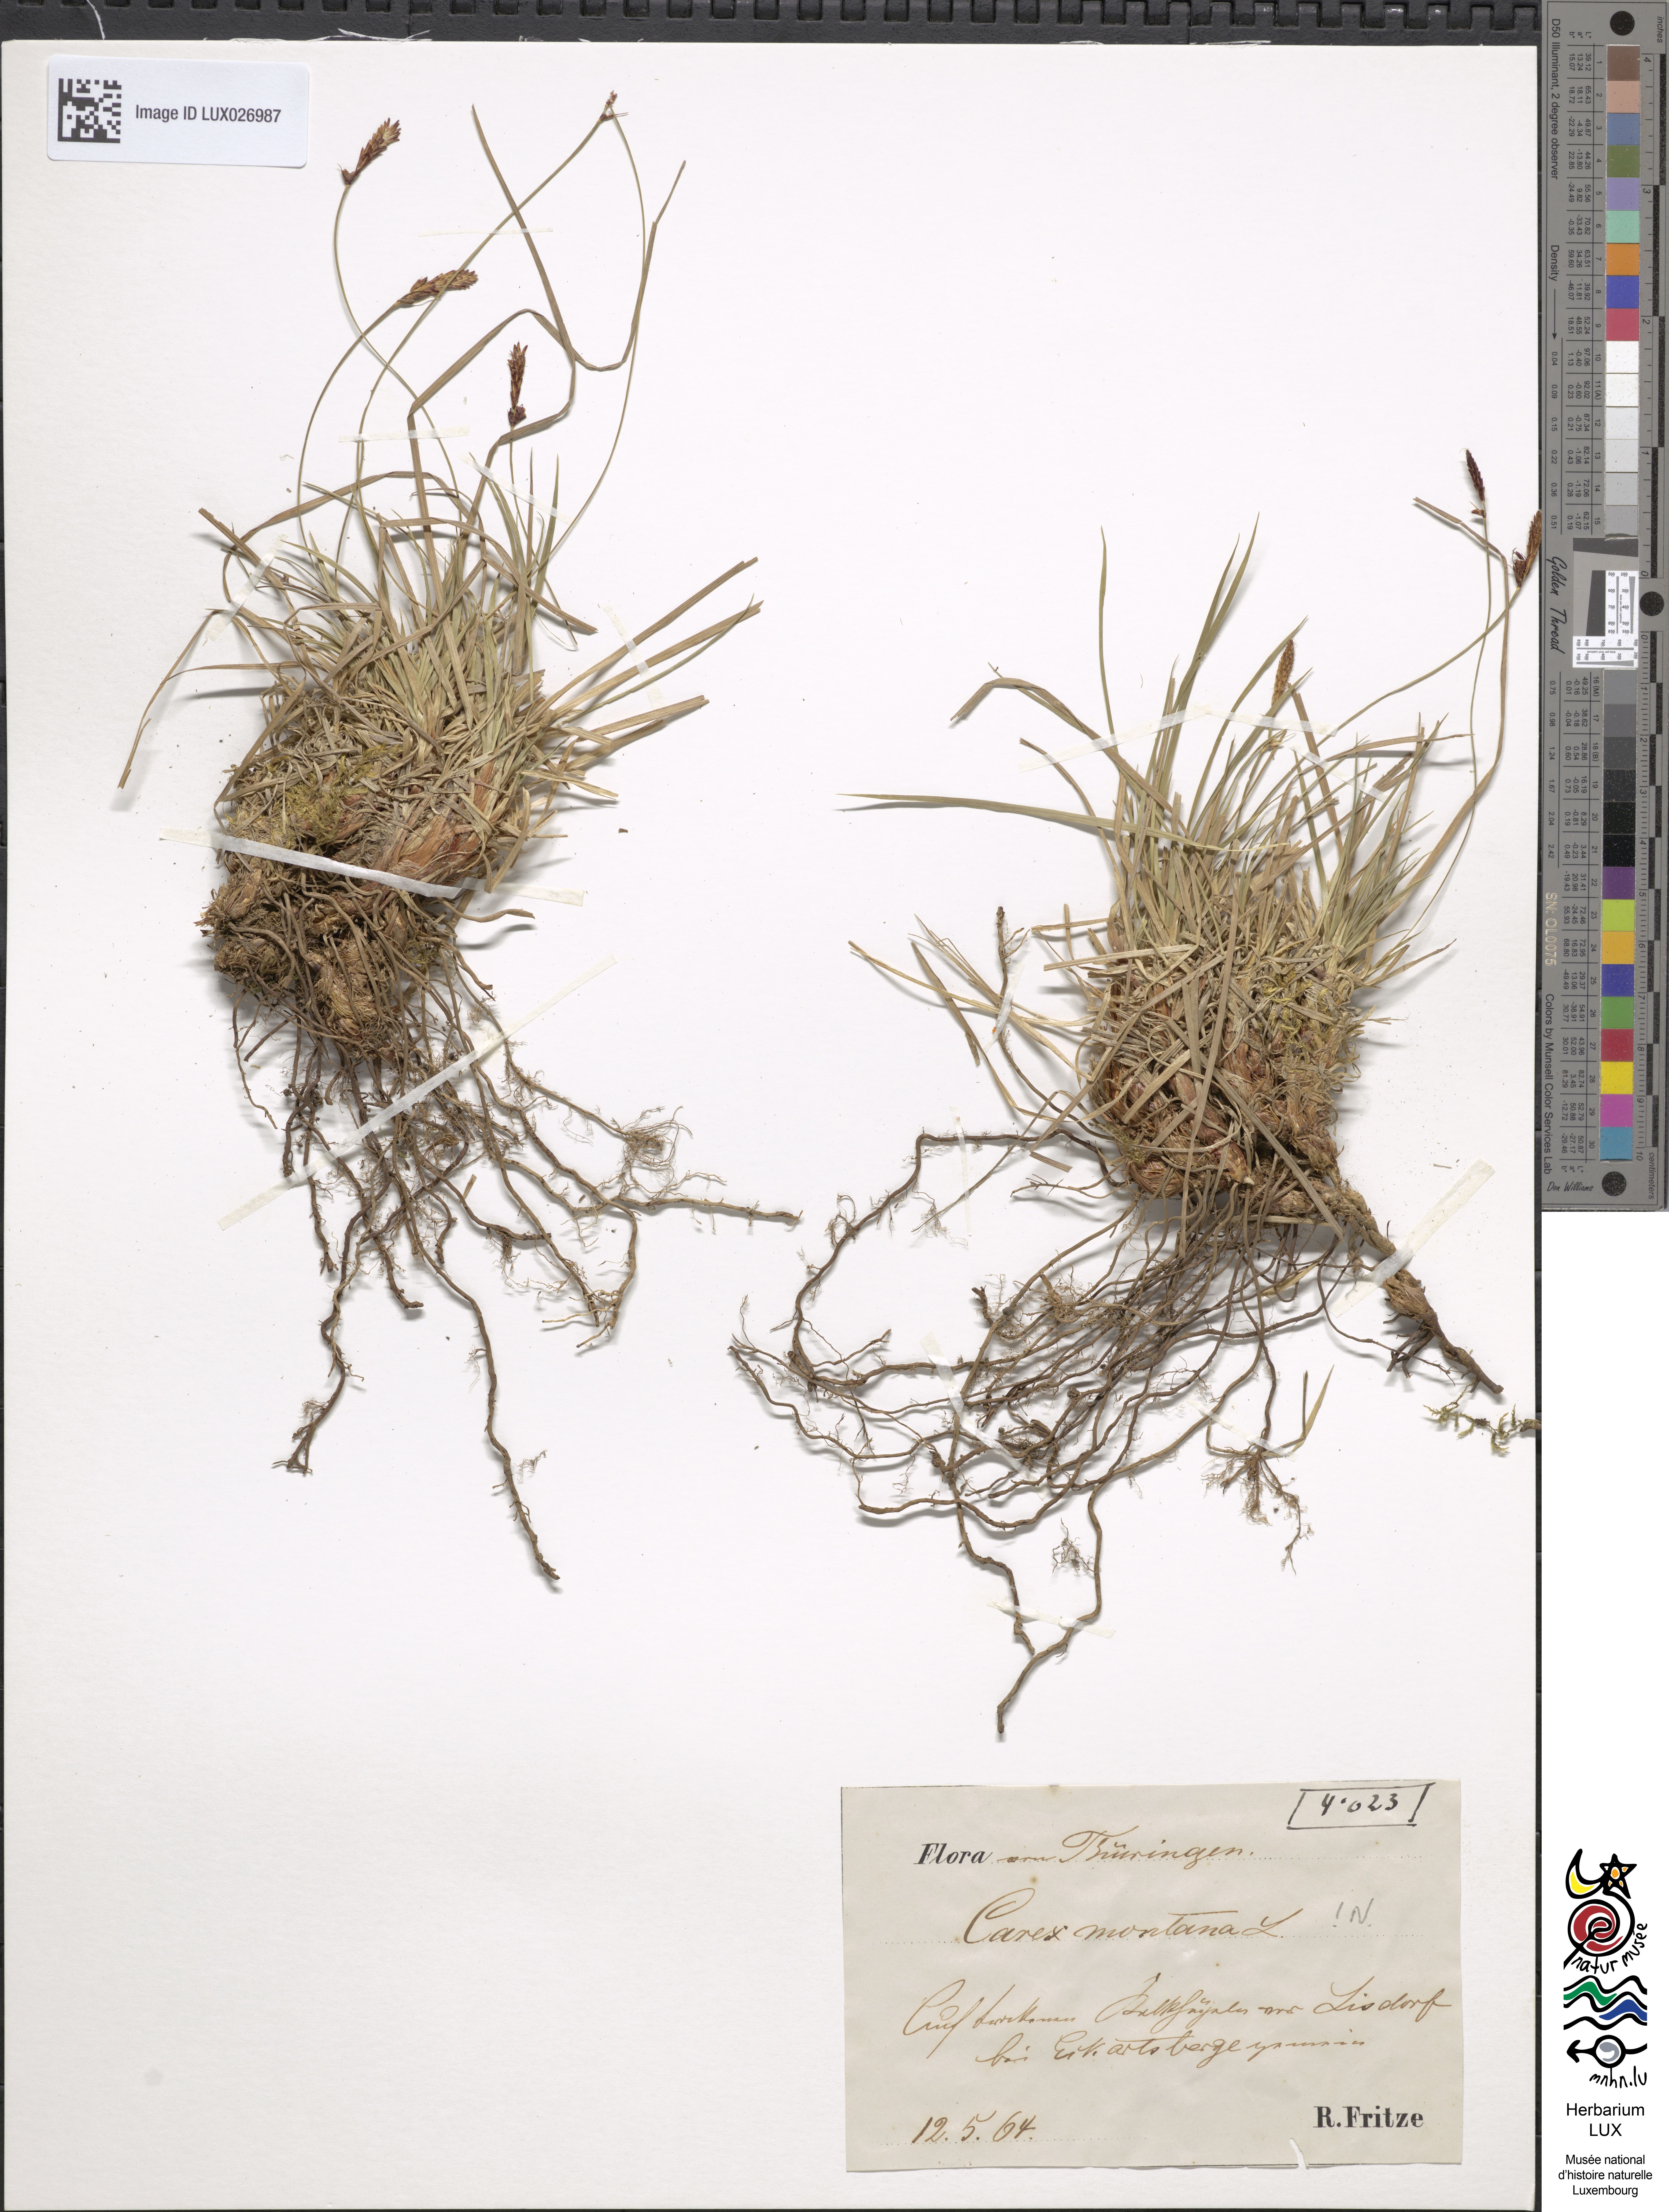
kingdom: Plantae
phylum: Tracheophyta
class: Liliopsida
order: Poales
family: Cyperaceae
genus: Carex
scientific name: Carex montana
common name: Soft-leaved sedge
